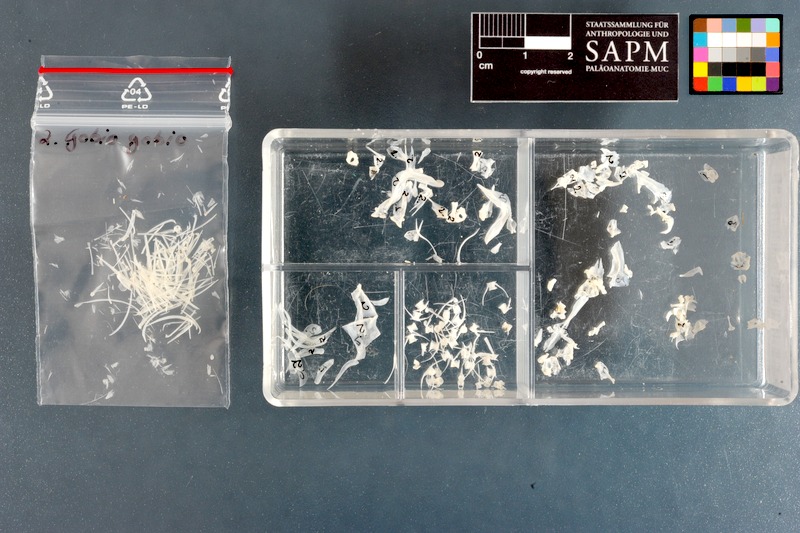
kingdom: Animalia
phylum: Chordata
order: Cypriniformes
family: Cyprinidae
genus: Gobio
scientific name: Gobio gobio
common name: Gudgeon
